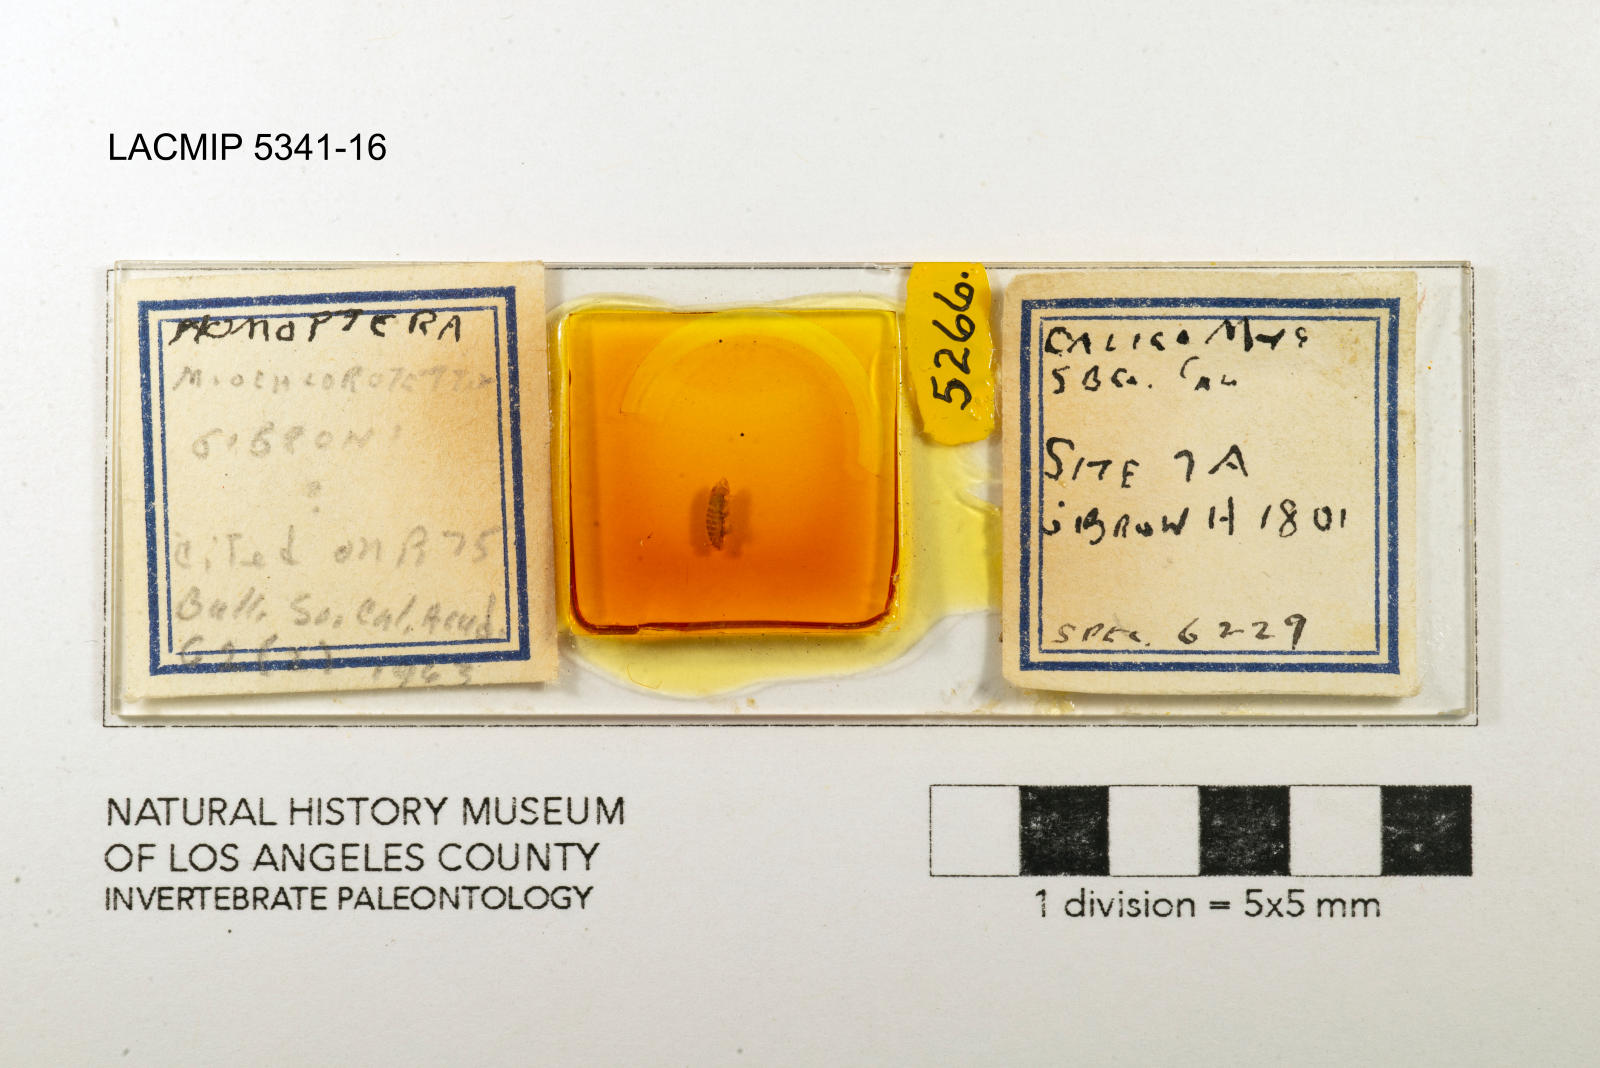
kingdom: Animalia
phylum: Arthropoda
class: Insecta
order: Hemiptera
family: Cicadellidae
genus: Miochlorotettix
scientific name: Miochlorotettix gibroni
